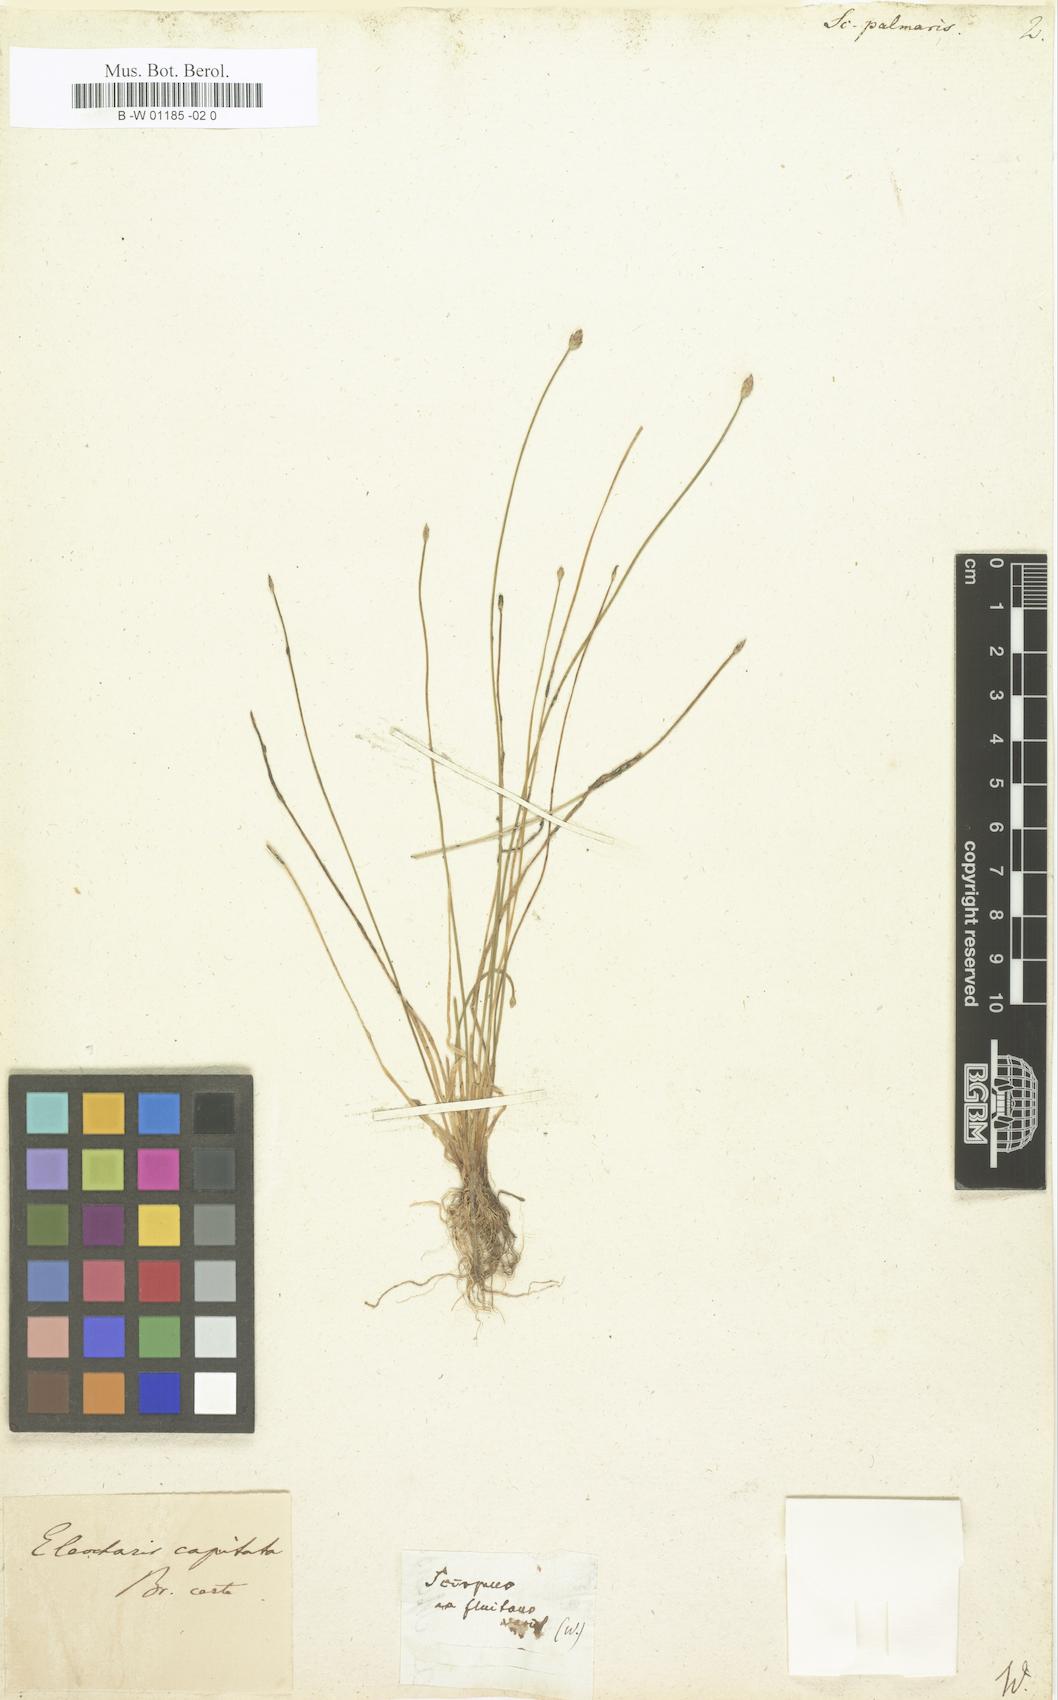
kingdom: Plantae
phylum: Tracheophyta
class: Liliopsida
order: Poales
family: Cyperaceae
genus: Eleocharis
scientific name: Eleocharis flavescens
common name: Yellow spikerush
